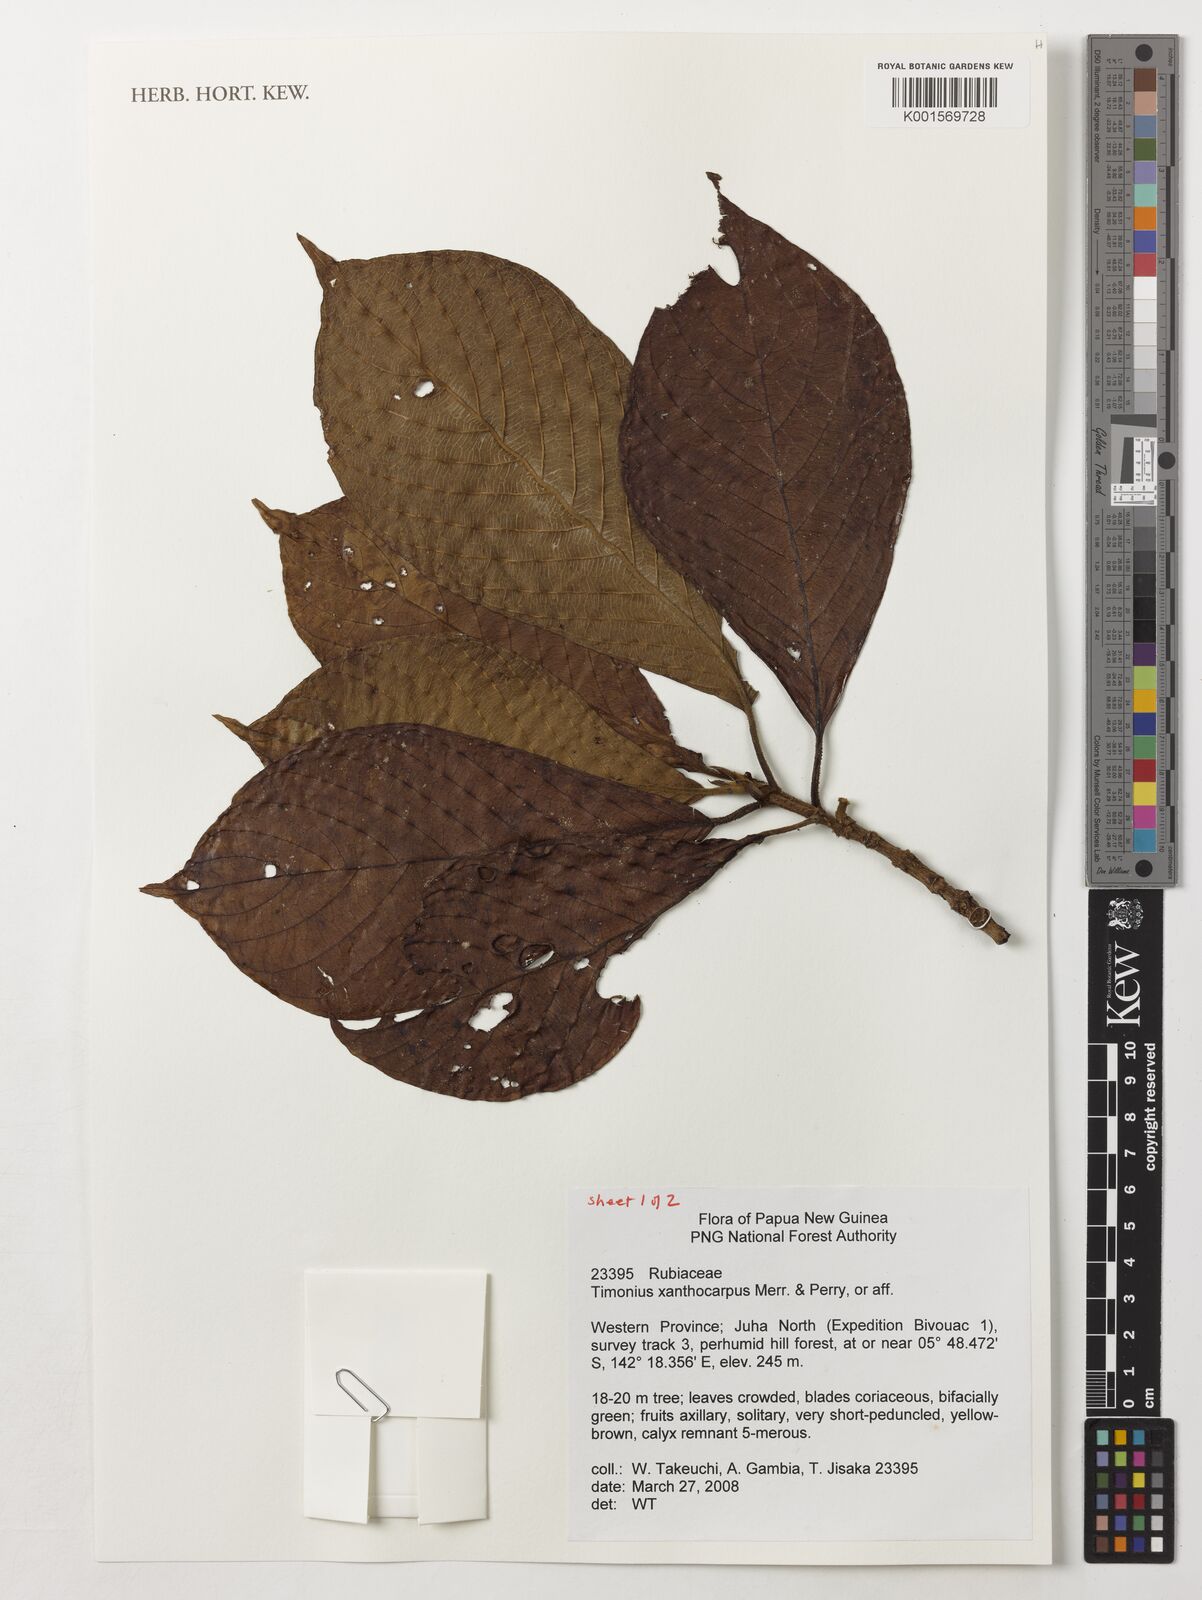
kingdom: Plantae
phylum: Tracheophyta
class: Magnoliopsida
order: Gentianales
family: Rubiaceae
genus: Timonius
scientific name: Timonius xanthocarpus
